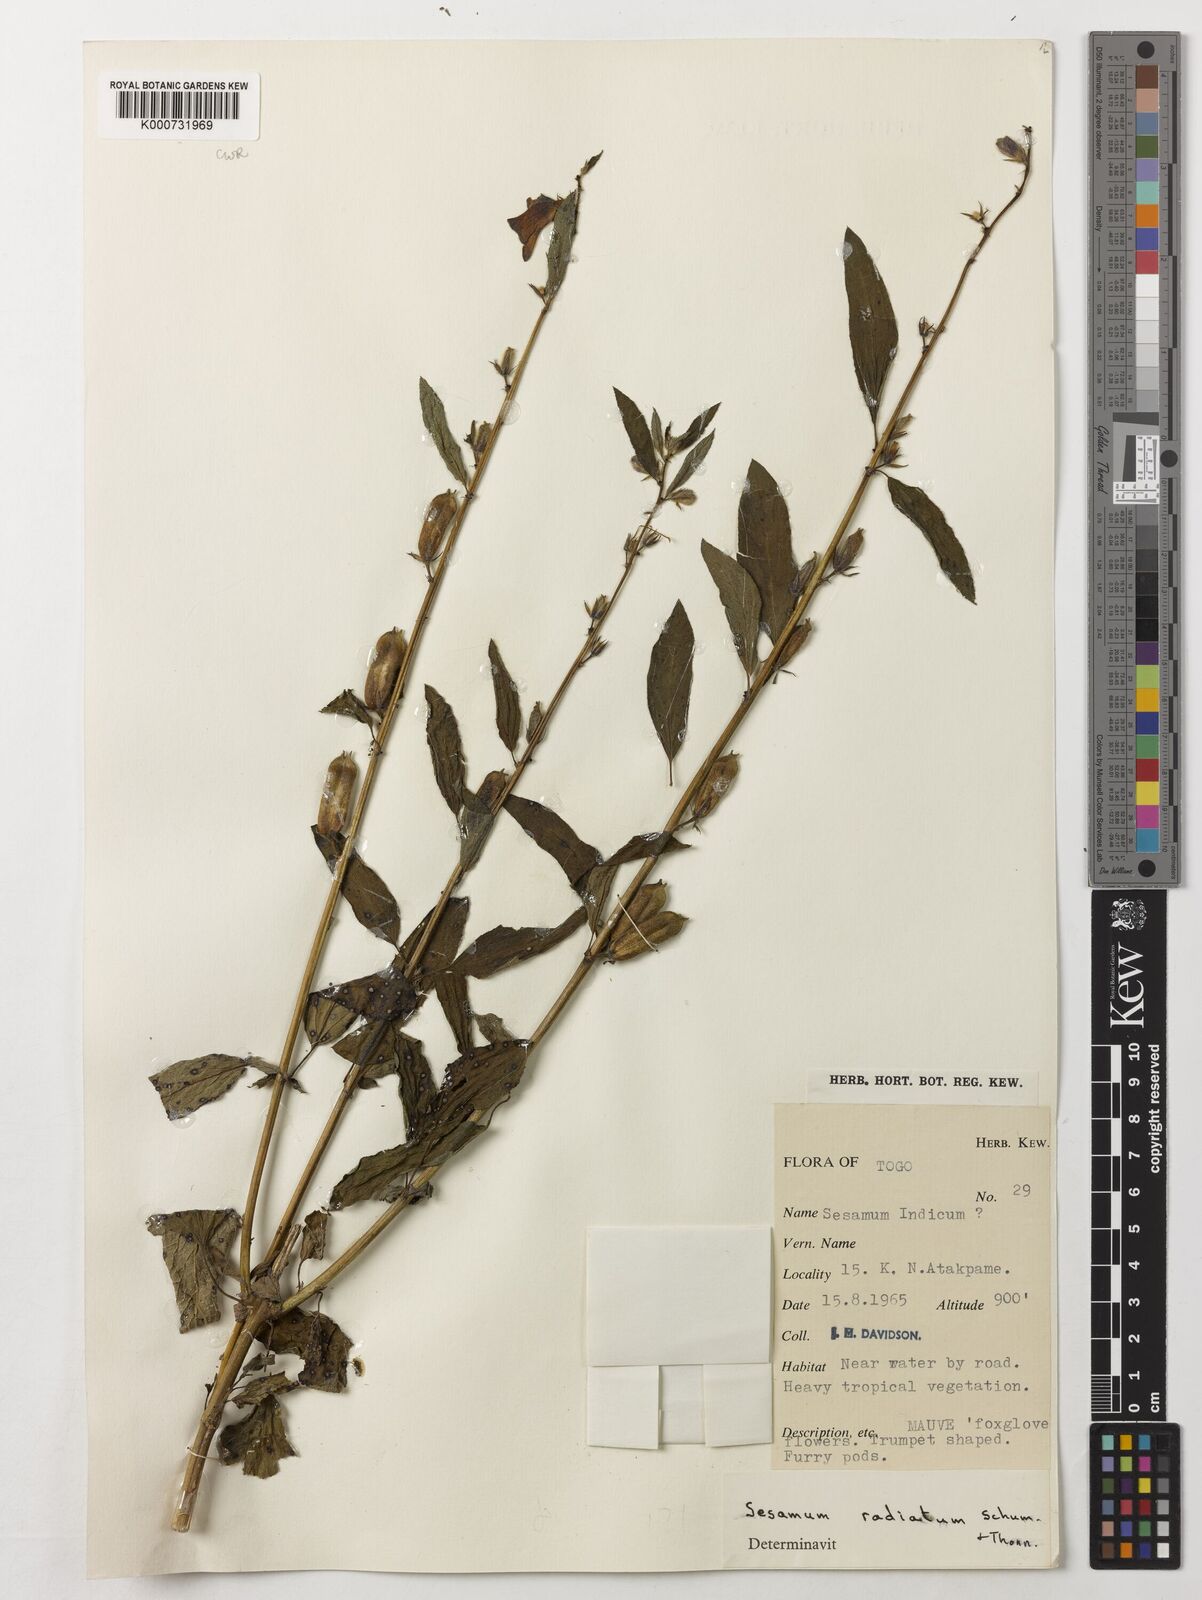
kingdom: Plantae
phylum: Tracheophyta
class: Magnoliopsida
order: Lamiales
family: Pedaliaceae
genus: Sesamum
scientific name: Sesamum
